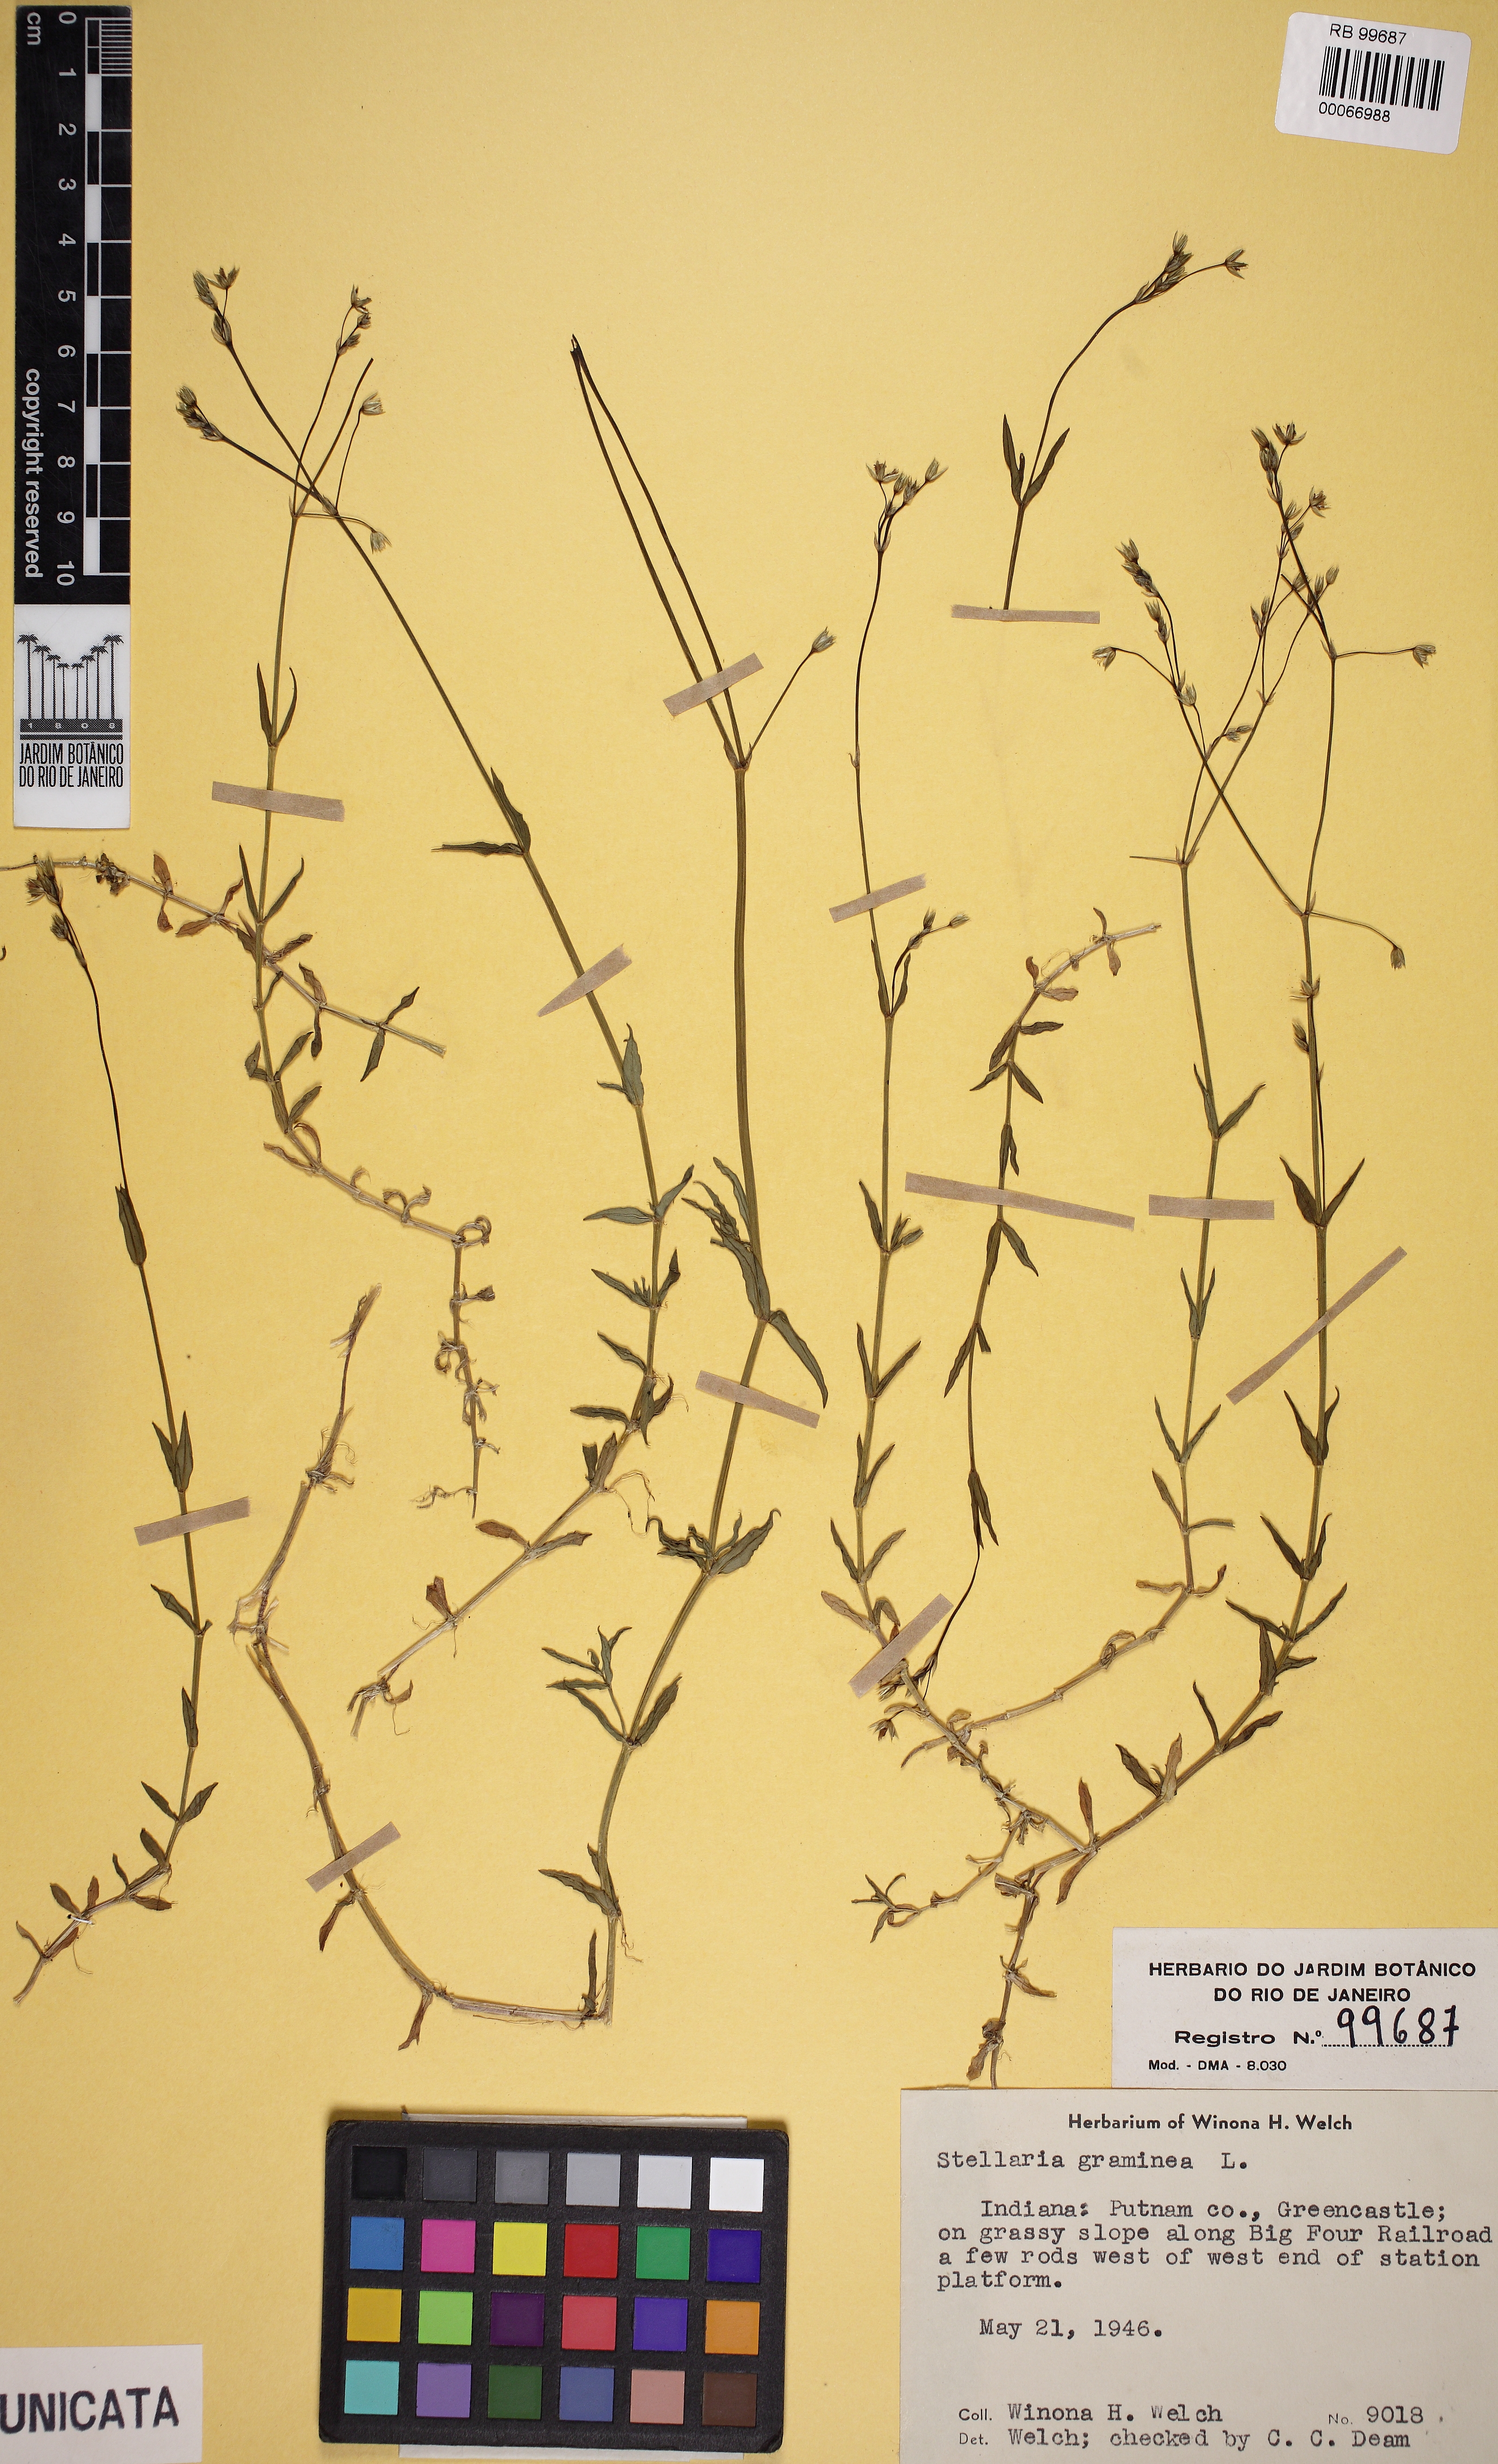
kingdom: Plantae
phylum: Tracheophyta
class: Magnoliopsida
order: Caryophyllales
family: Caryophyllaceae
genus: Stellaria
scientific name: Stellaria graminea
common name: Grass-like starwort
